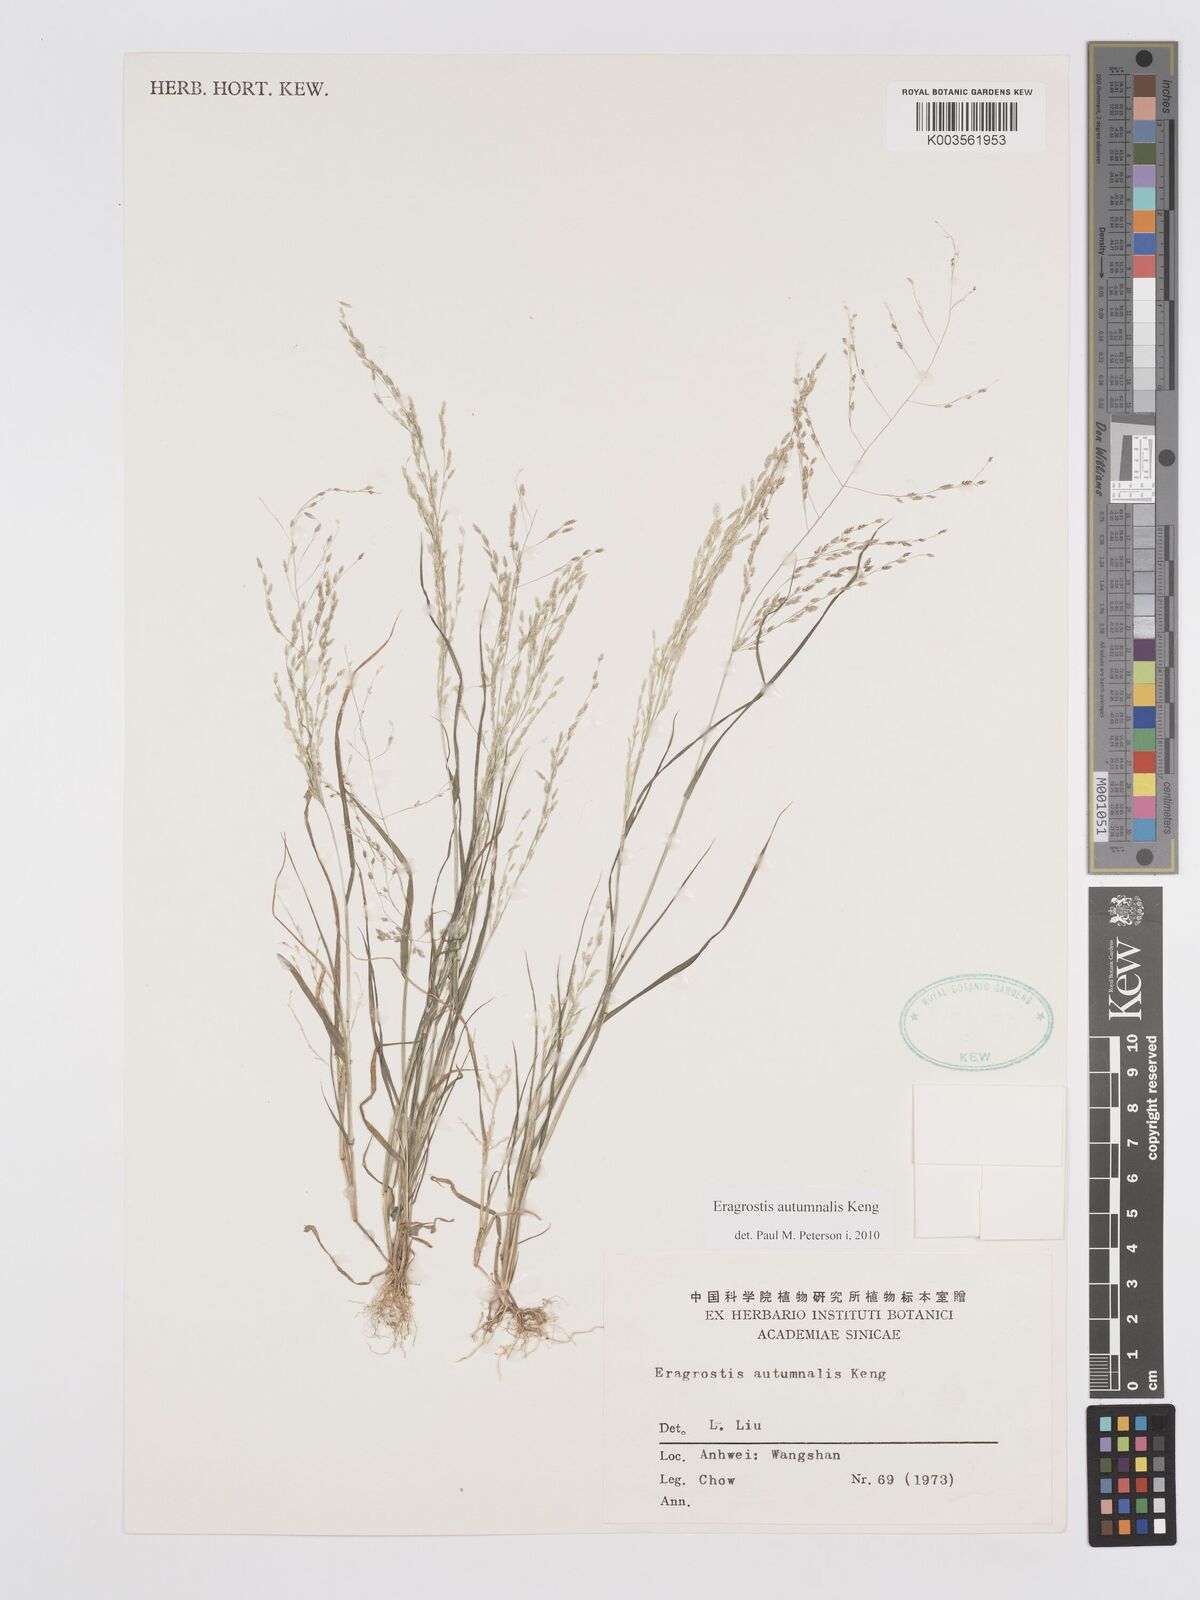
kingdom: Plantae
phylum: Tracheophyta
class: Liliopsida
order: Poales
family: Poaceae
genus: Eragrostis
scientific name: Eragrostis autumnalis
